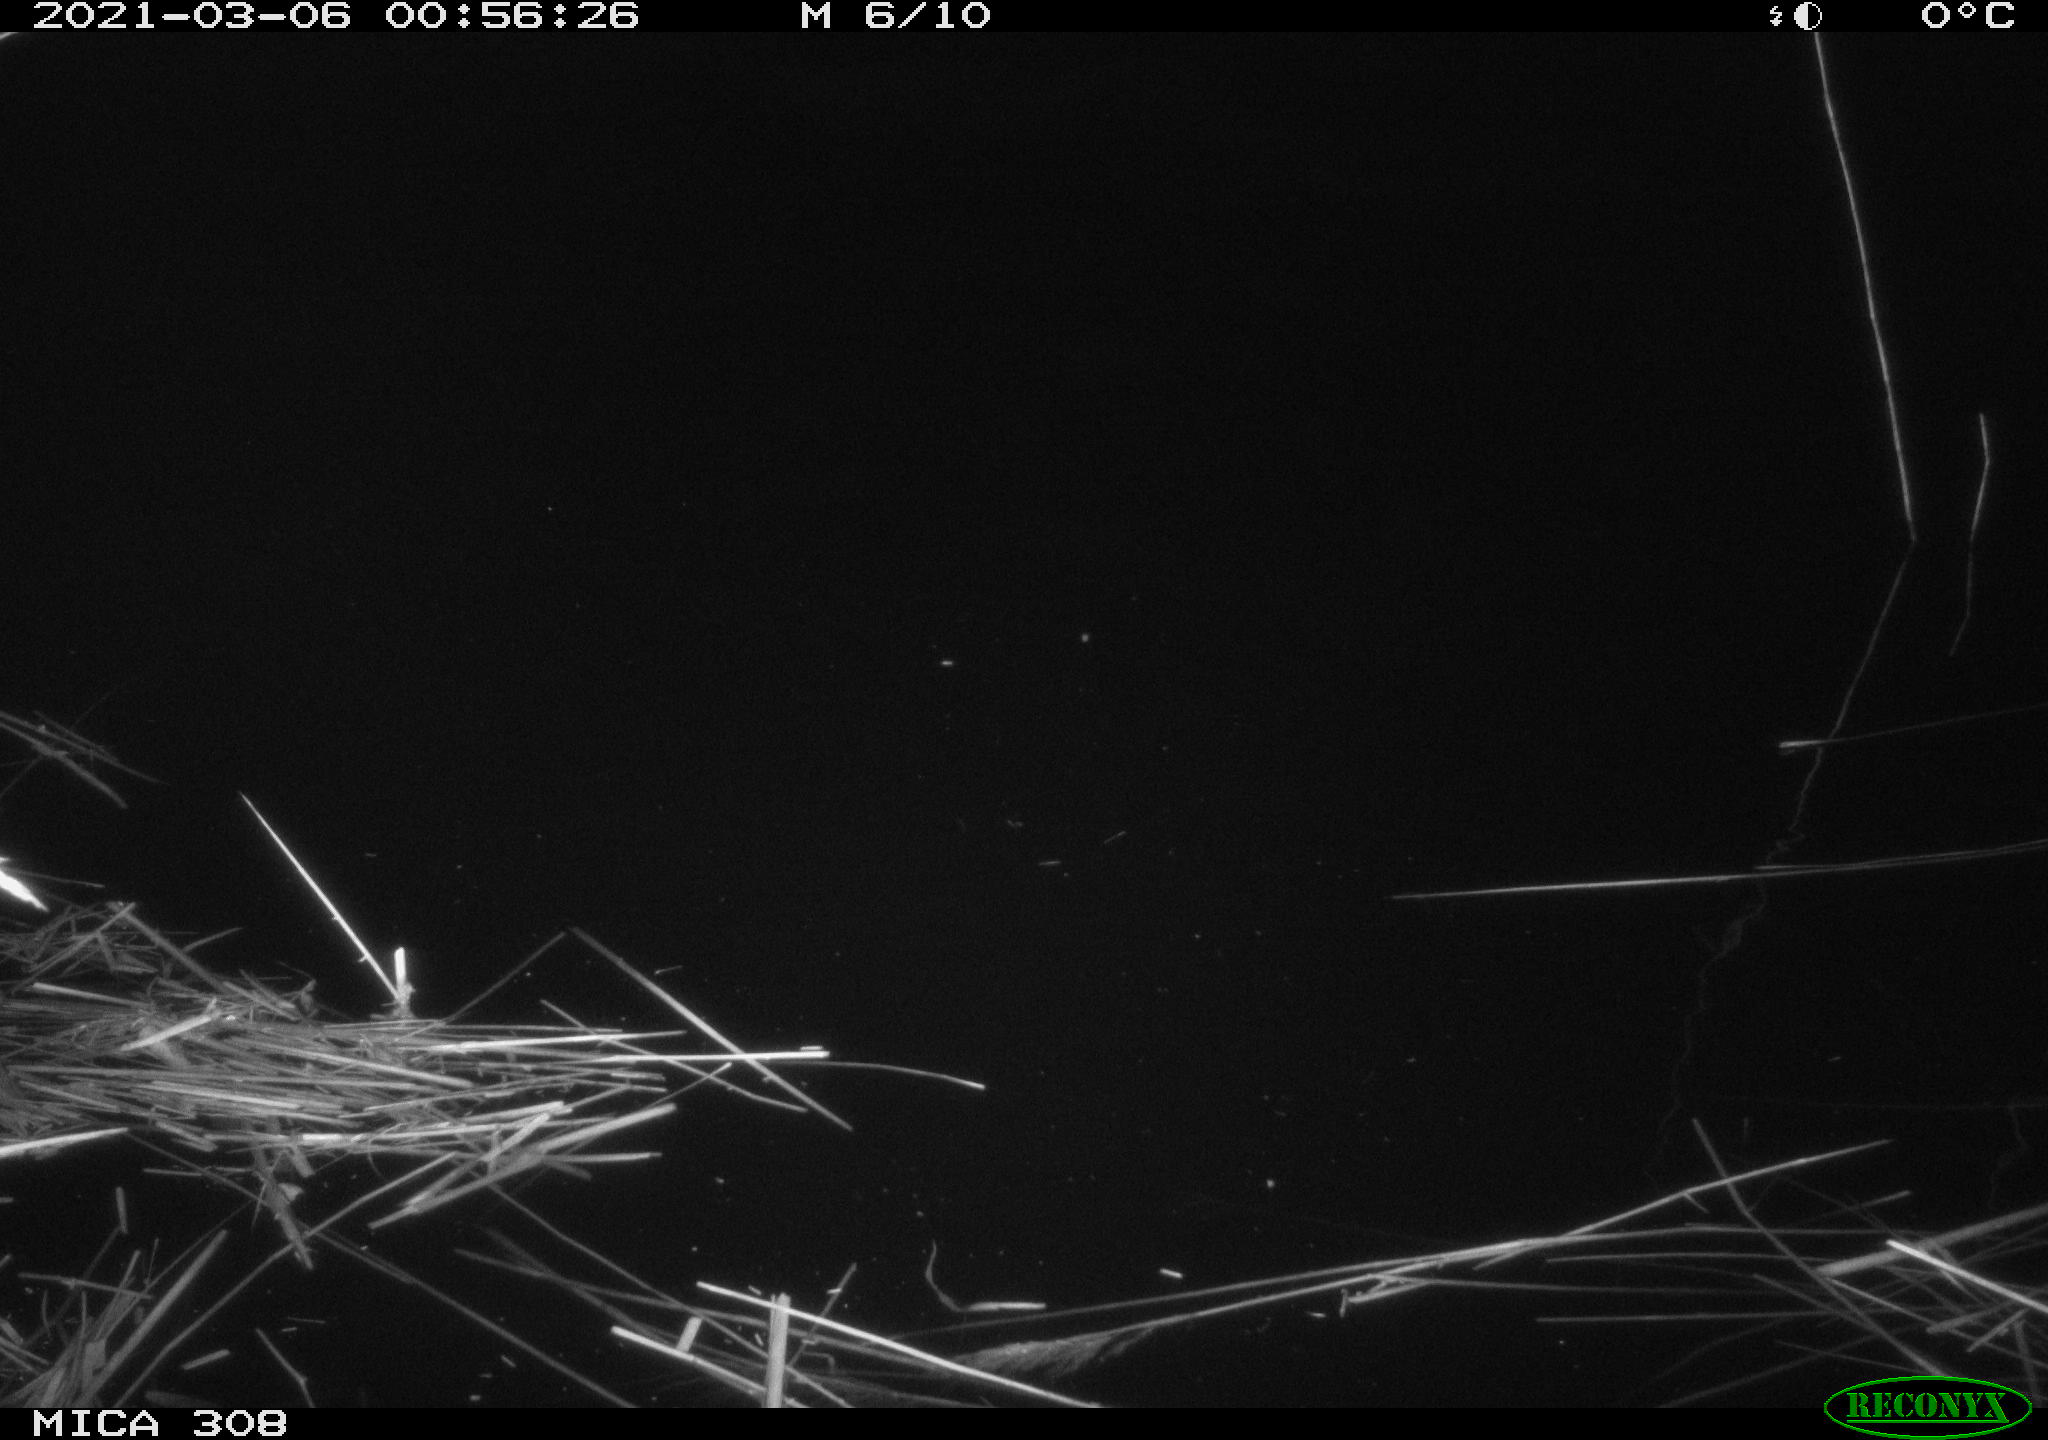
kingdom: Animalia
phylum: Chordata
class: Mammalia
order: Rodentia
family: Cricetidae
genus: Ondatra
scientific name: Ondatra zibethicus
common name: Muskrat
